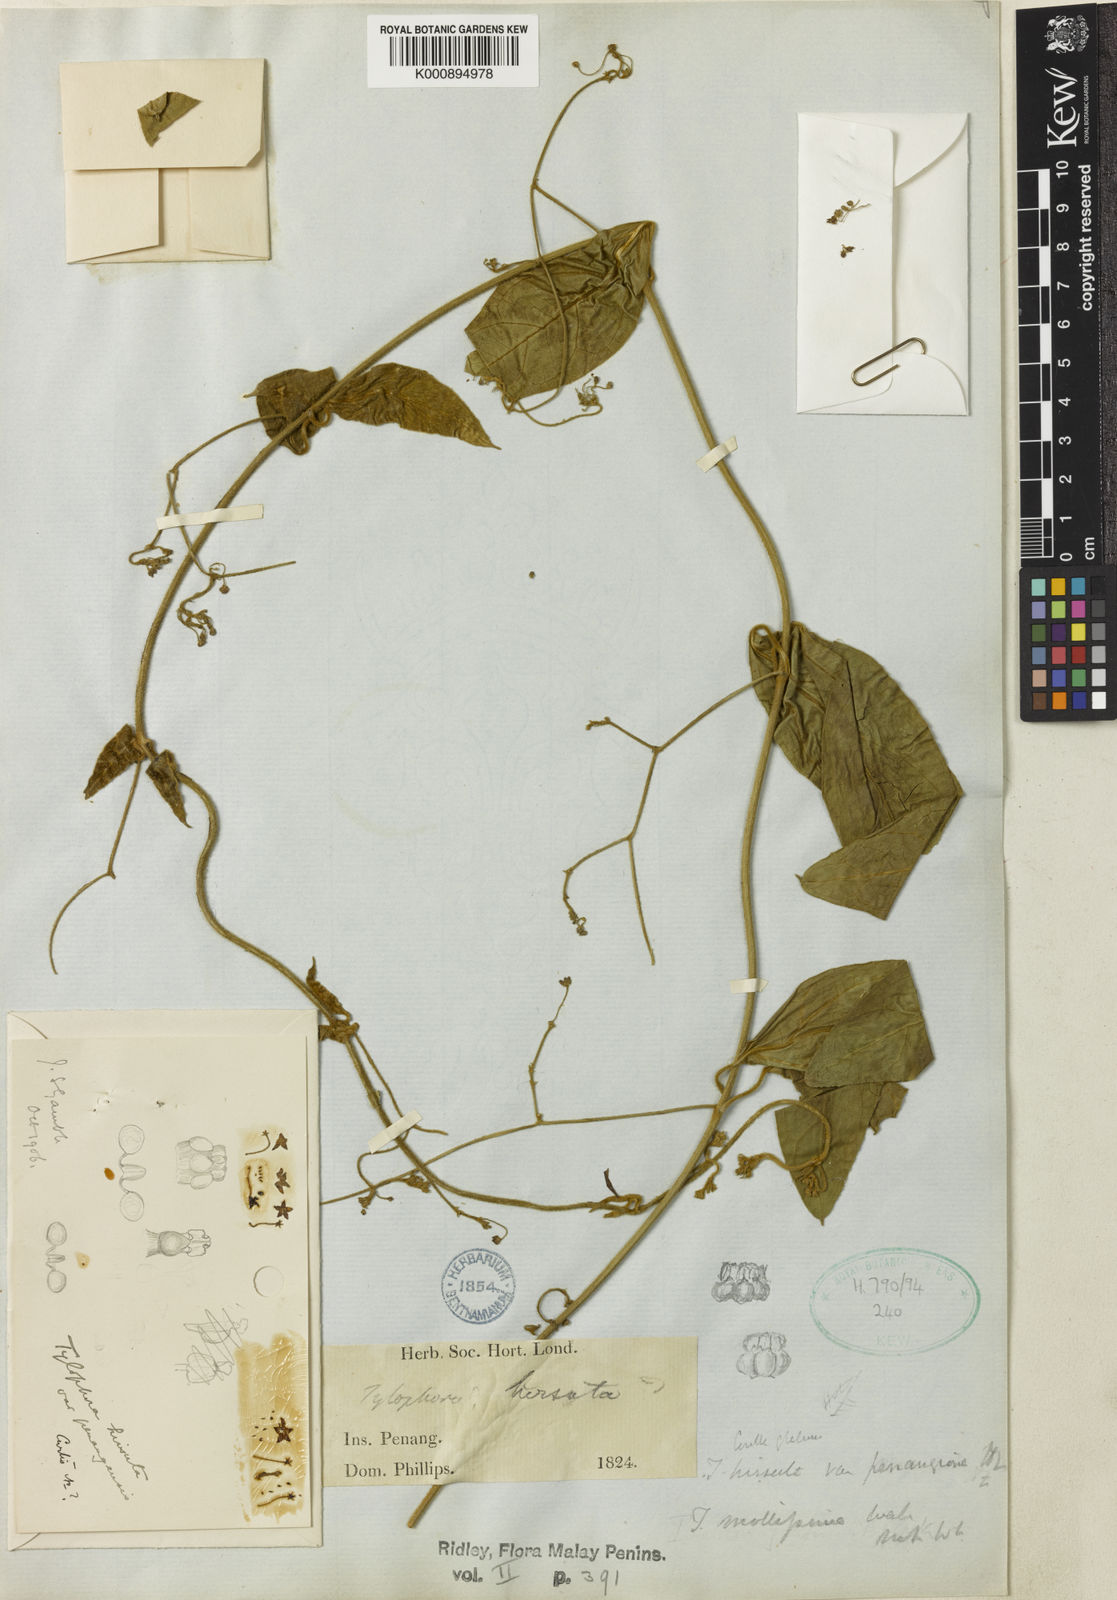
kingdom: Plantae
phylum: Tracheophyta
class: Magnoliopsida
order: Gentianales
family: Apocynaceae
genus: Vincetoxicum
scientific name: Vincetoxicum hirsutum
